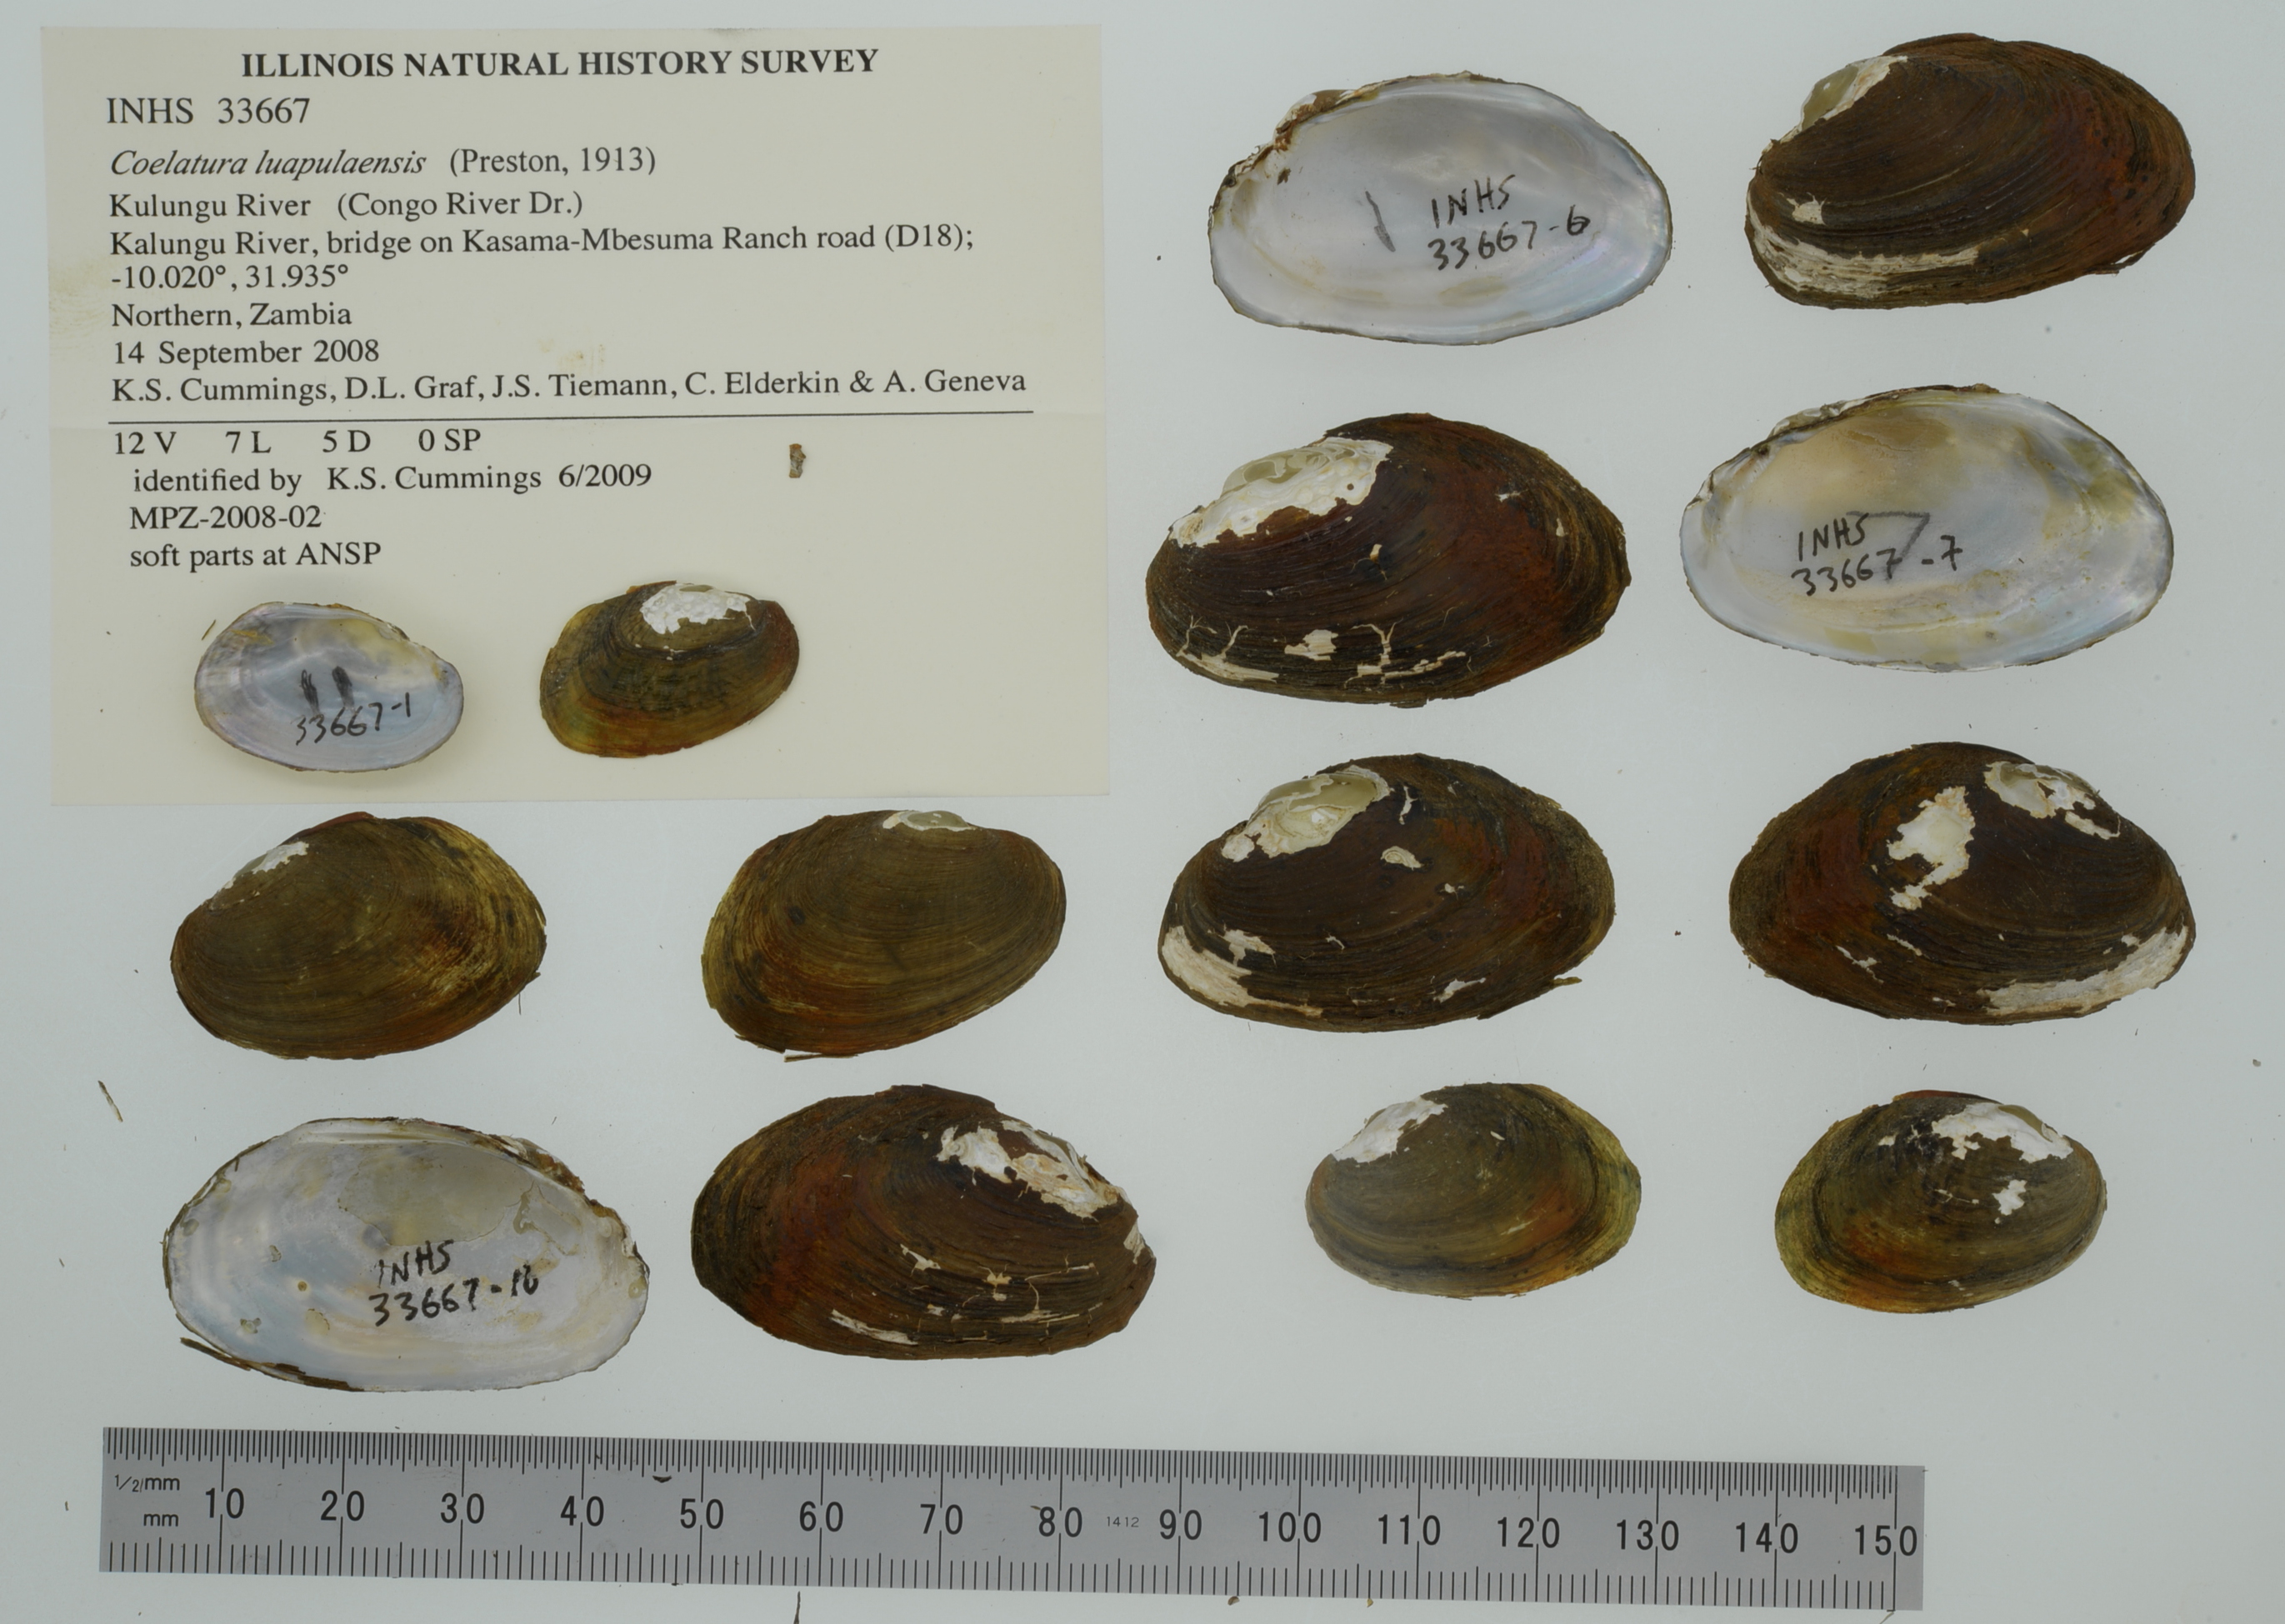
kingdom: Animalia
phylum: Mollusca
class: Bivalvia
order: Unionida
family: Unionidae
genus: Coelatura
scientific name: Coelatura luapulaensis
